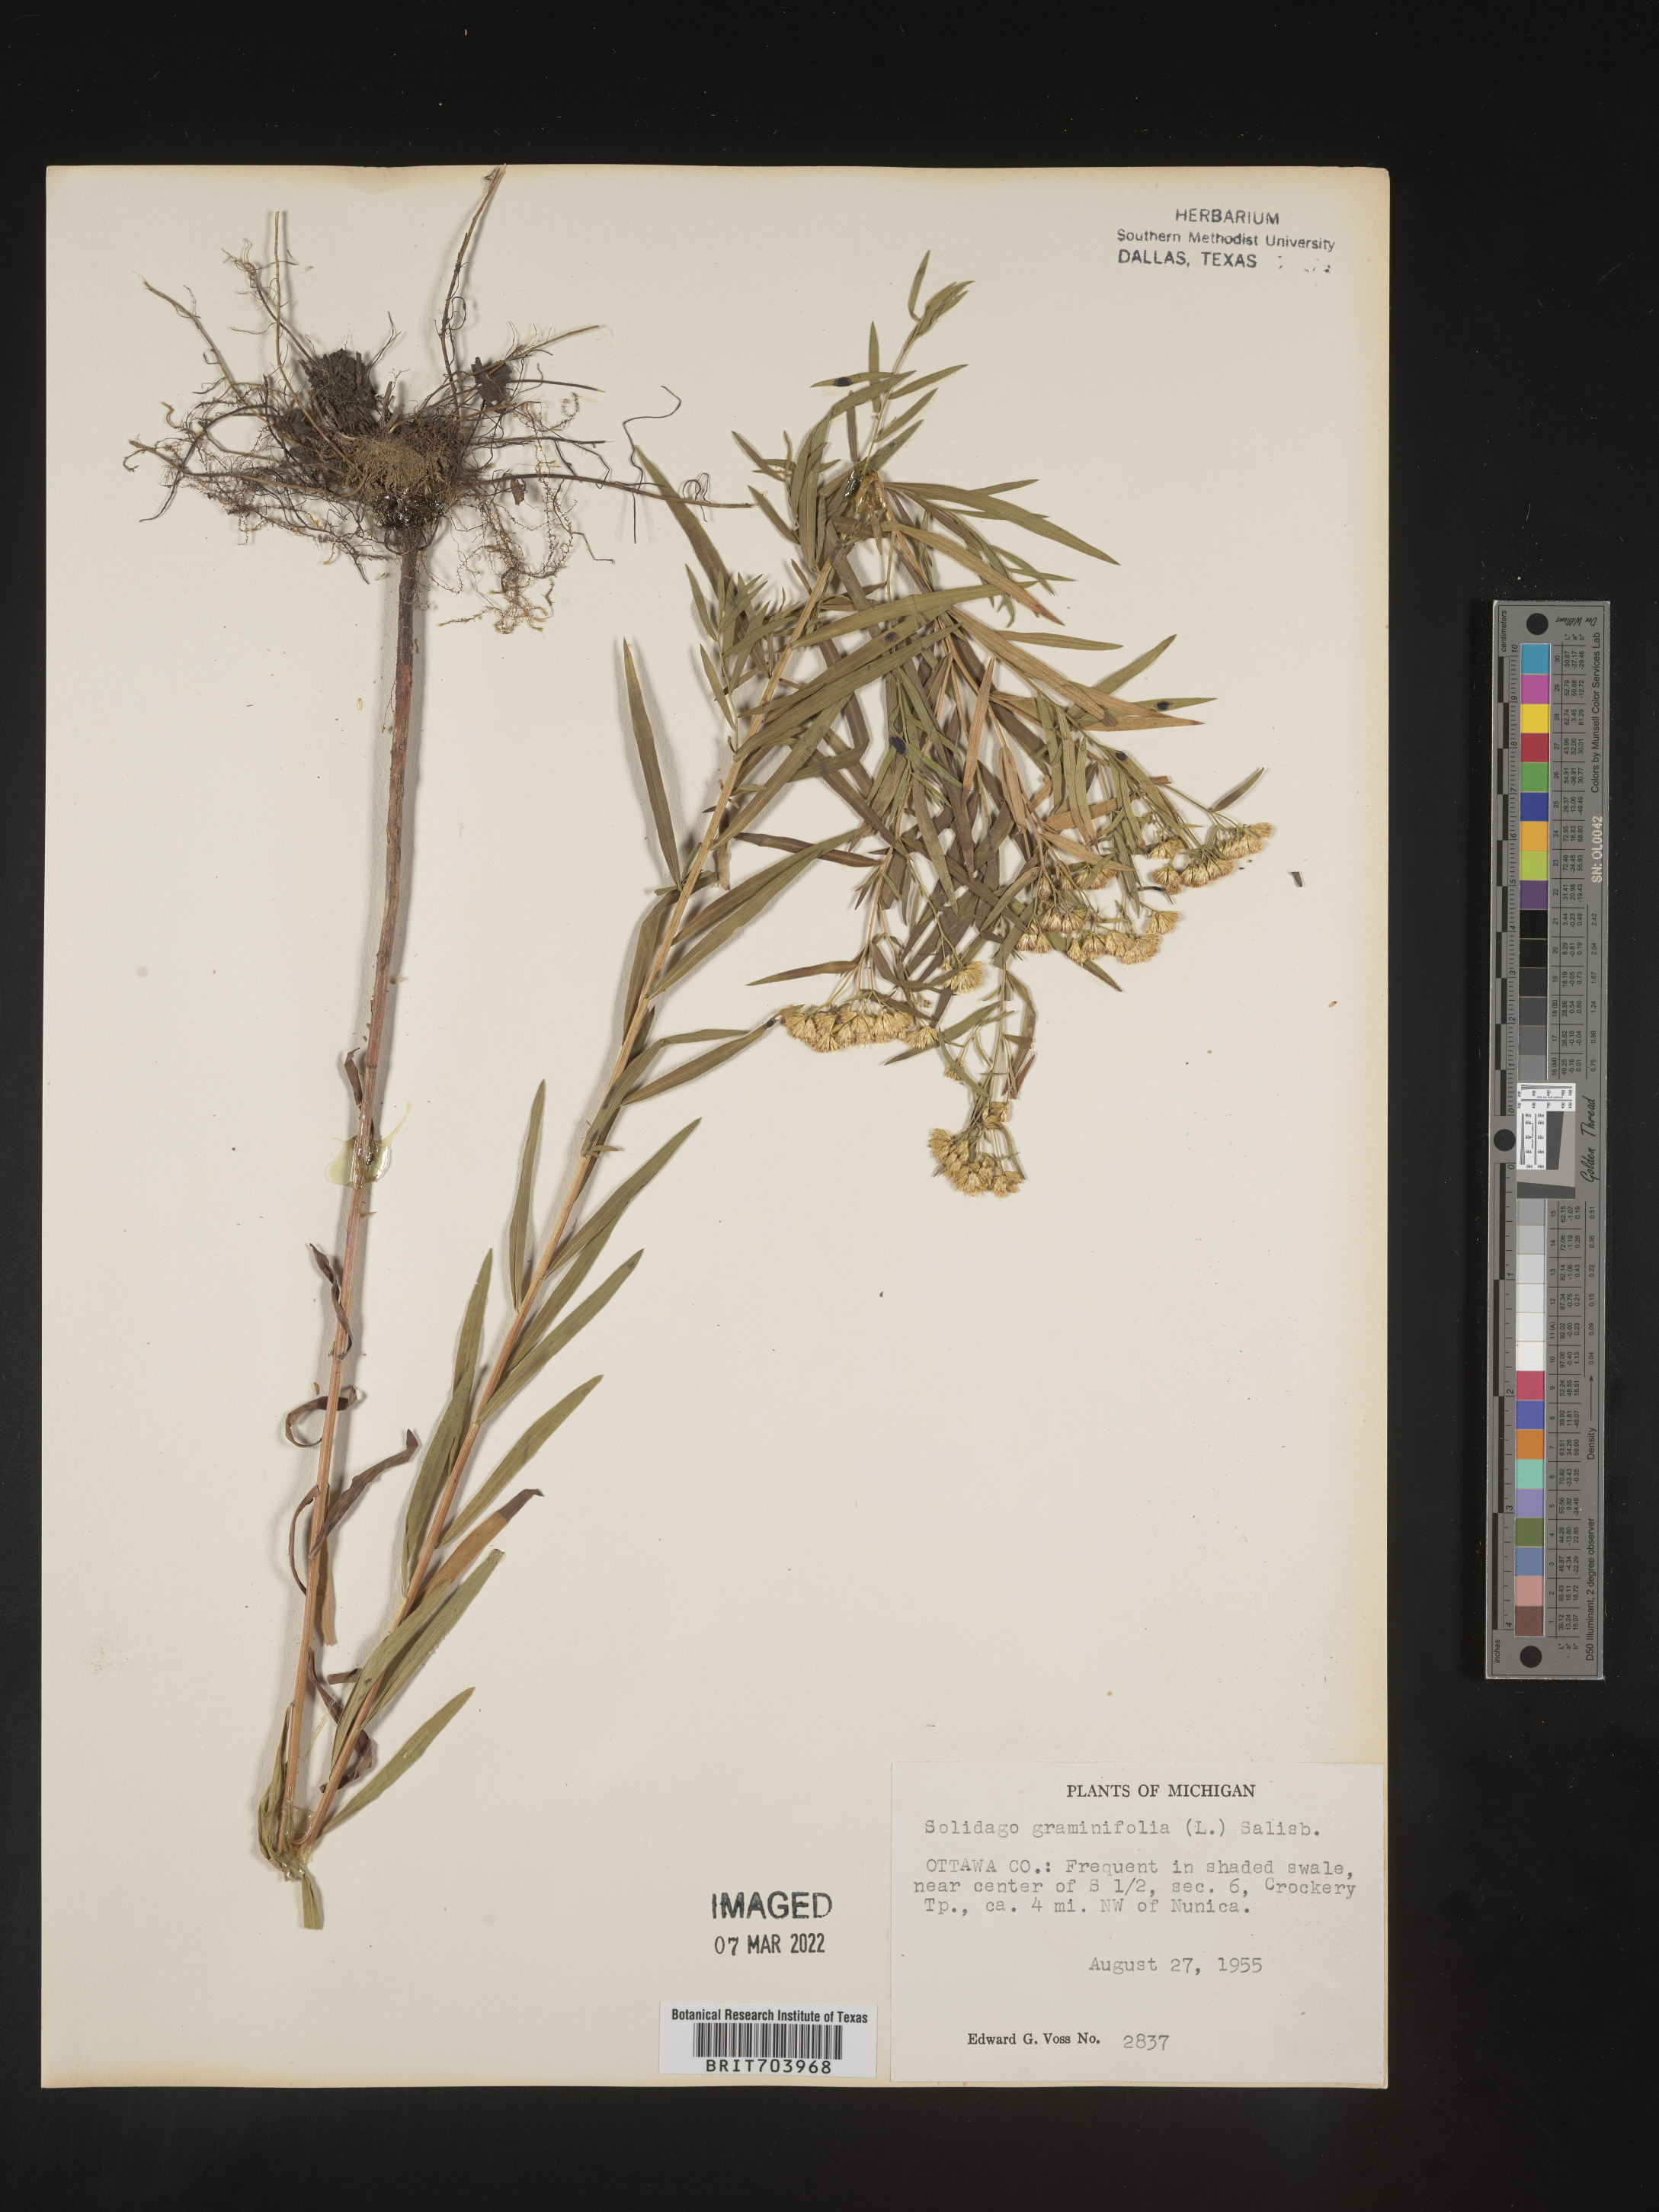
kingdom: Plantae
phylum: Tracheophyta
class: Magnoliopsida
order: Asterales
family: Asteraceae
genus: Euthamia
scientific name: Euthamia graminifolia
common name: Common goldentop
